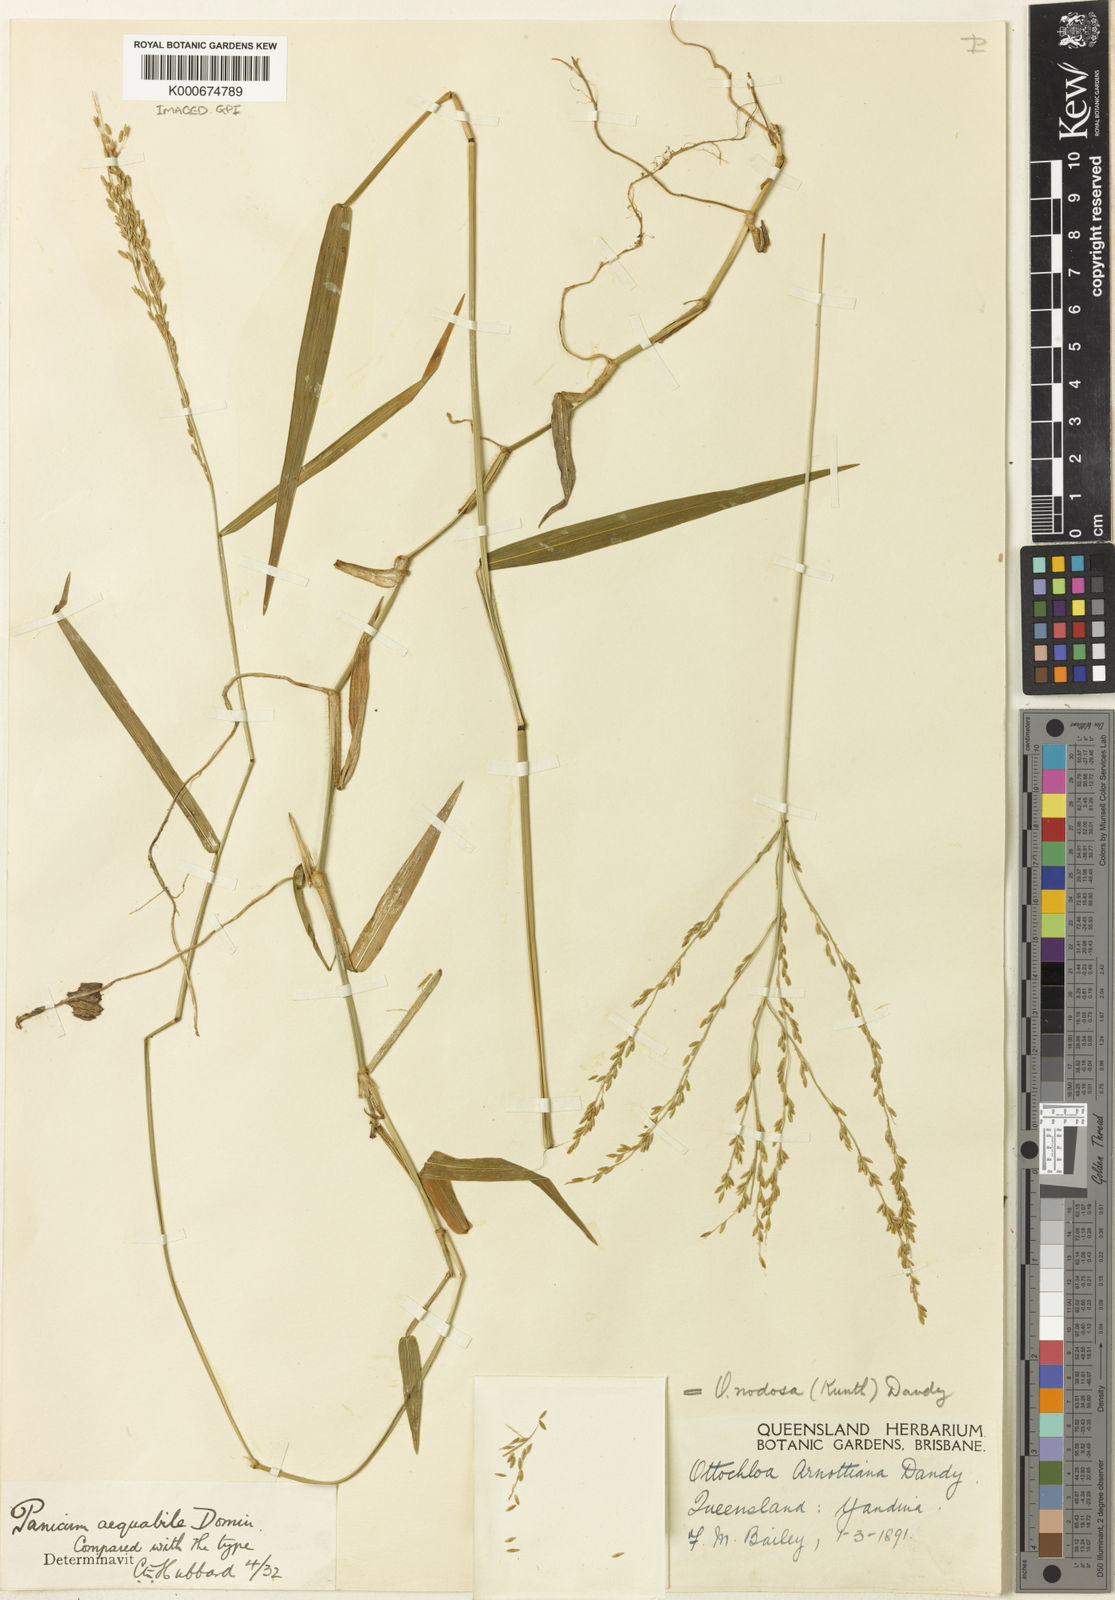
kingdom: Plantae
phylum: Tracheophyta
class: Liliopsida
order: Poales
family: Poaceae
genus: Ottochloa
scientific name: Ottochloa nodosa
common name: Slender-panic grass
